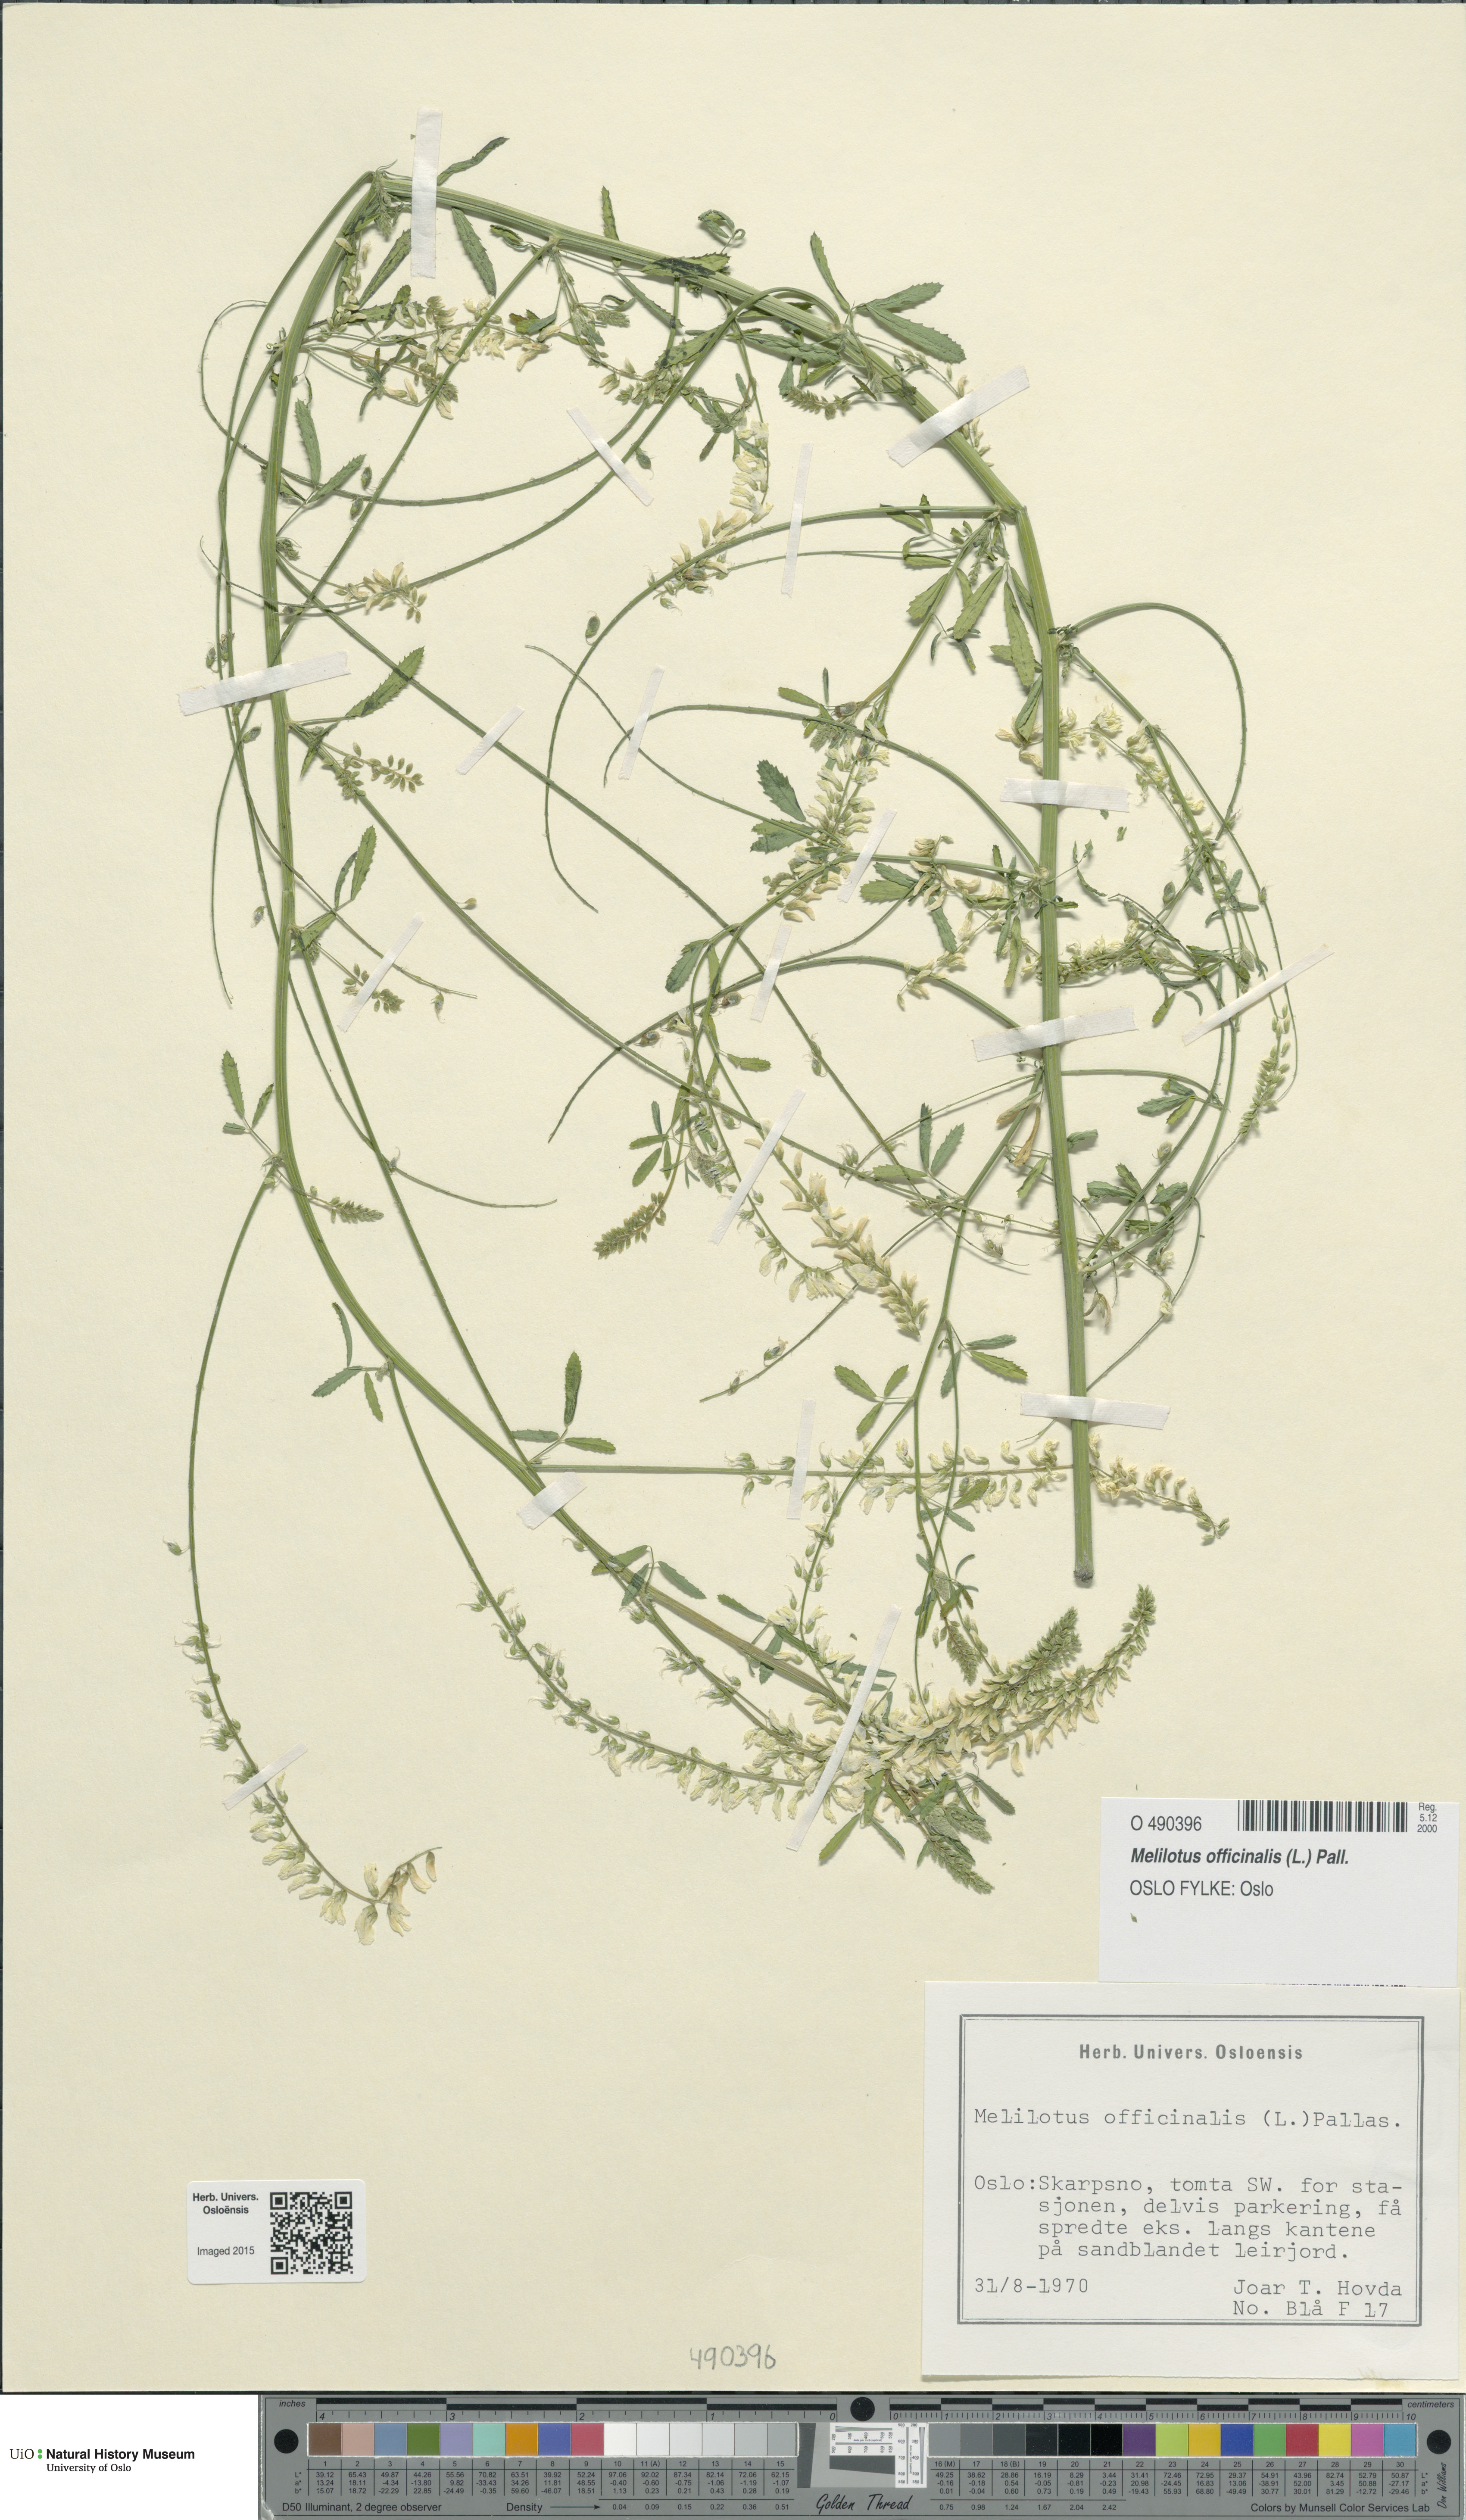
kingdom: Plantae
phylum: Tracheophyta
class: Magnoliopsida
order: Fabales
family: Fabaceae
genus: Melilotus
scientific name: Melilotus officinalis
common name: Sweetclover
